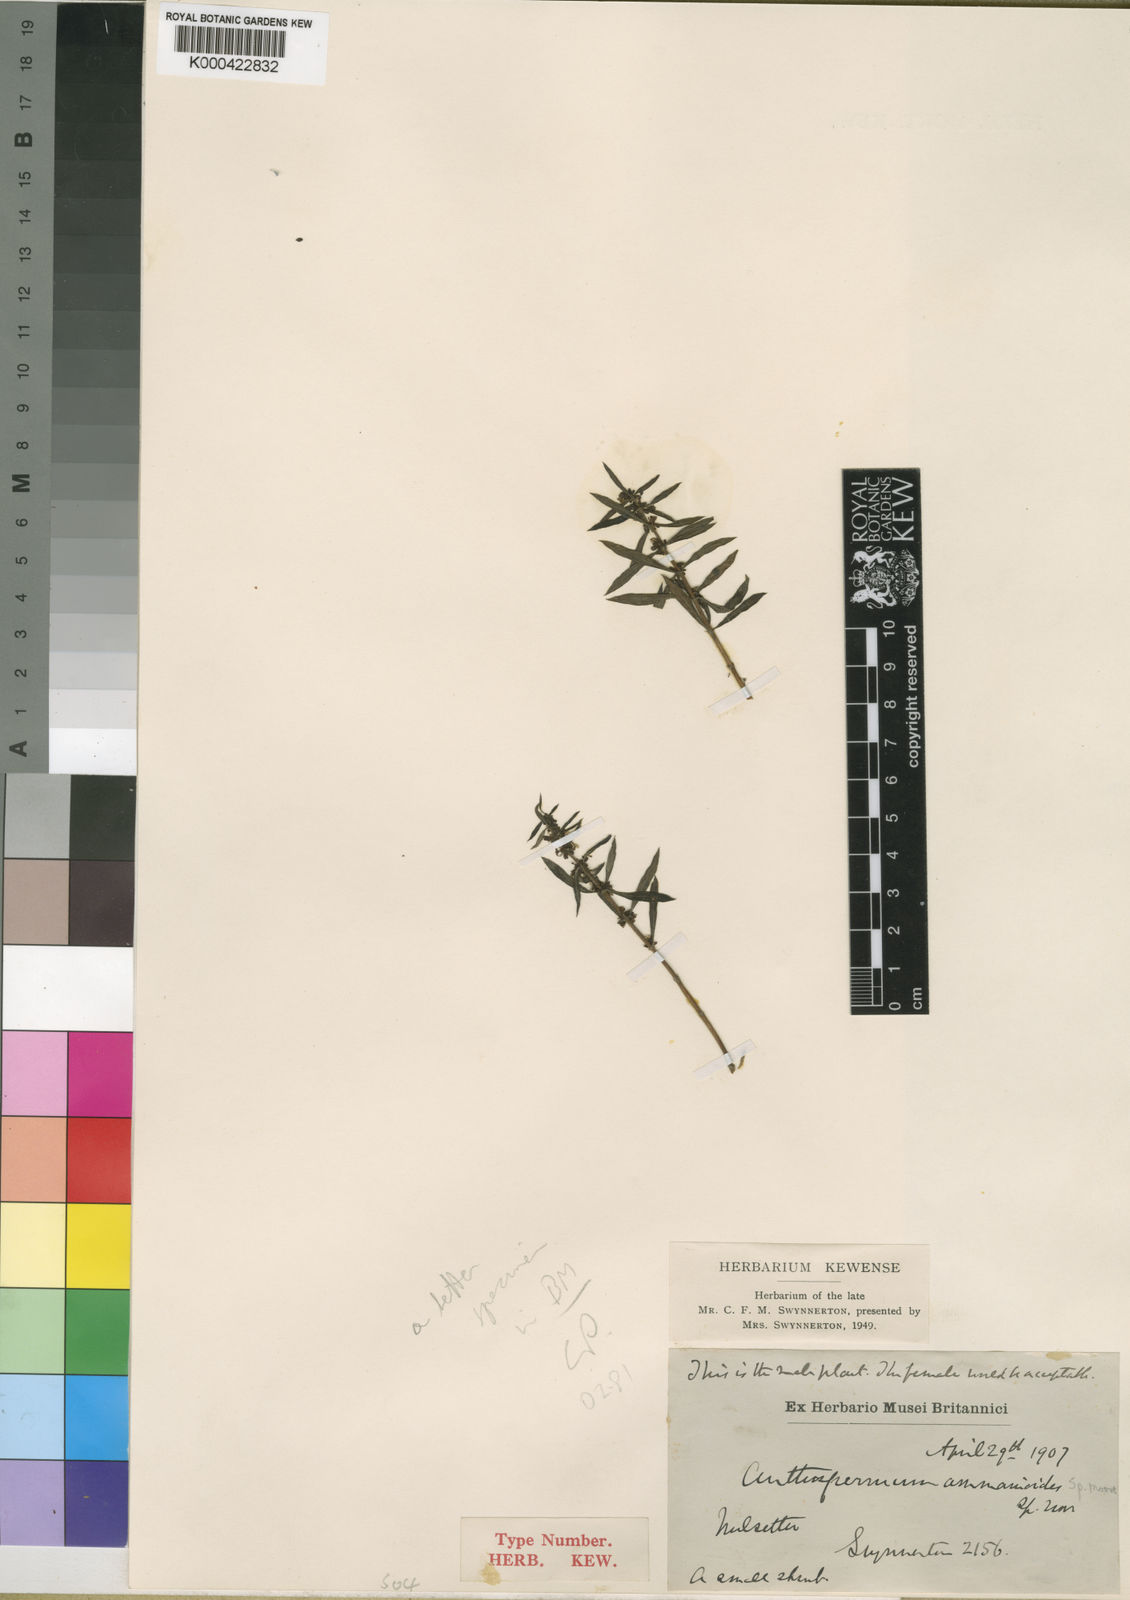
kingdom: Plantae
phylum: Tracheophyta
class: Magnoliopsida
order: Gentianales
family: Rubiaceae
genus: Anthospermum
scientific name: Anthospermum ammannioides
